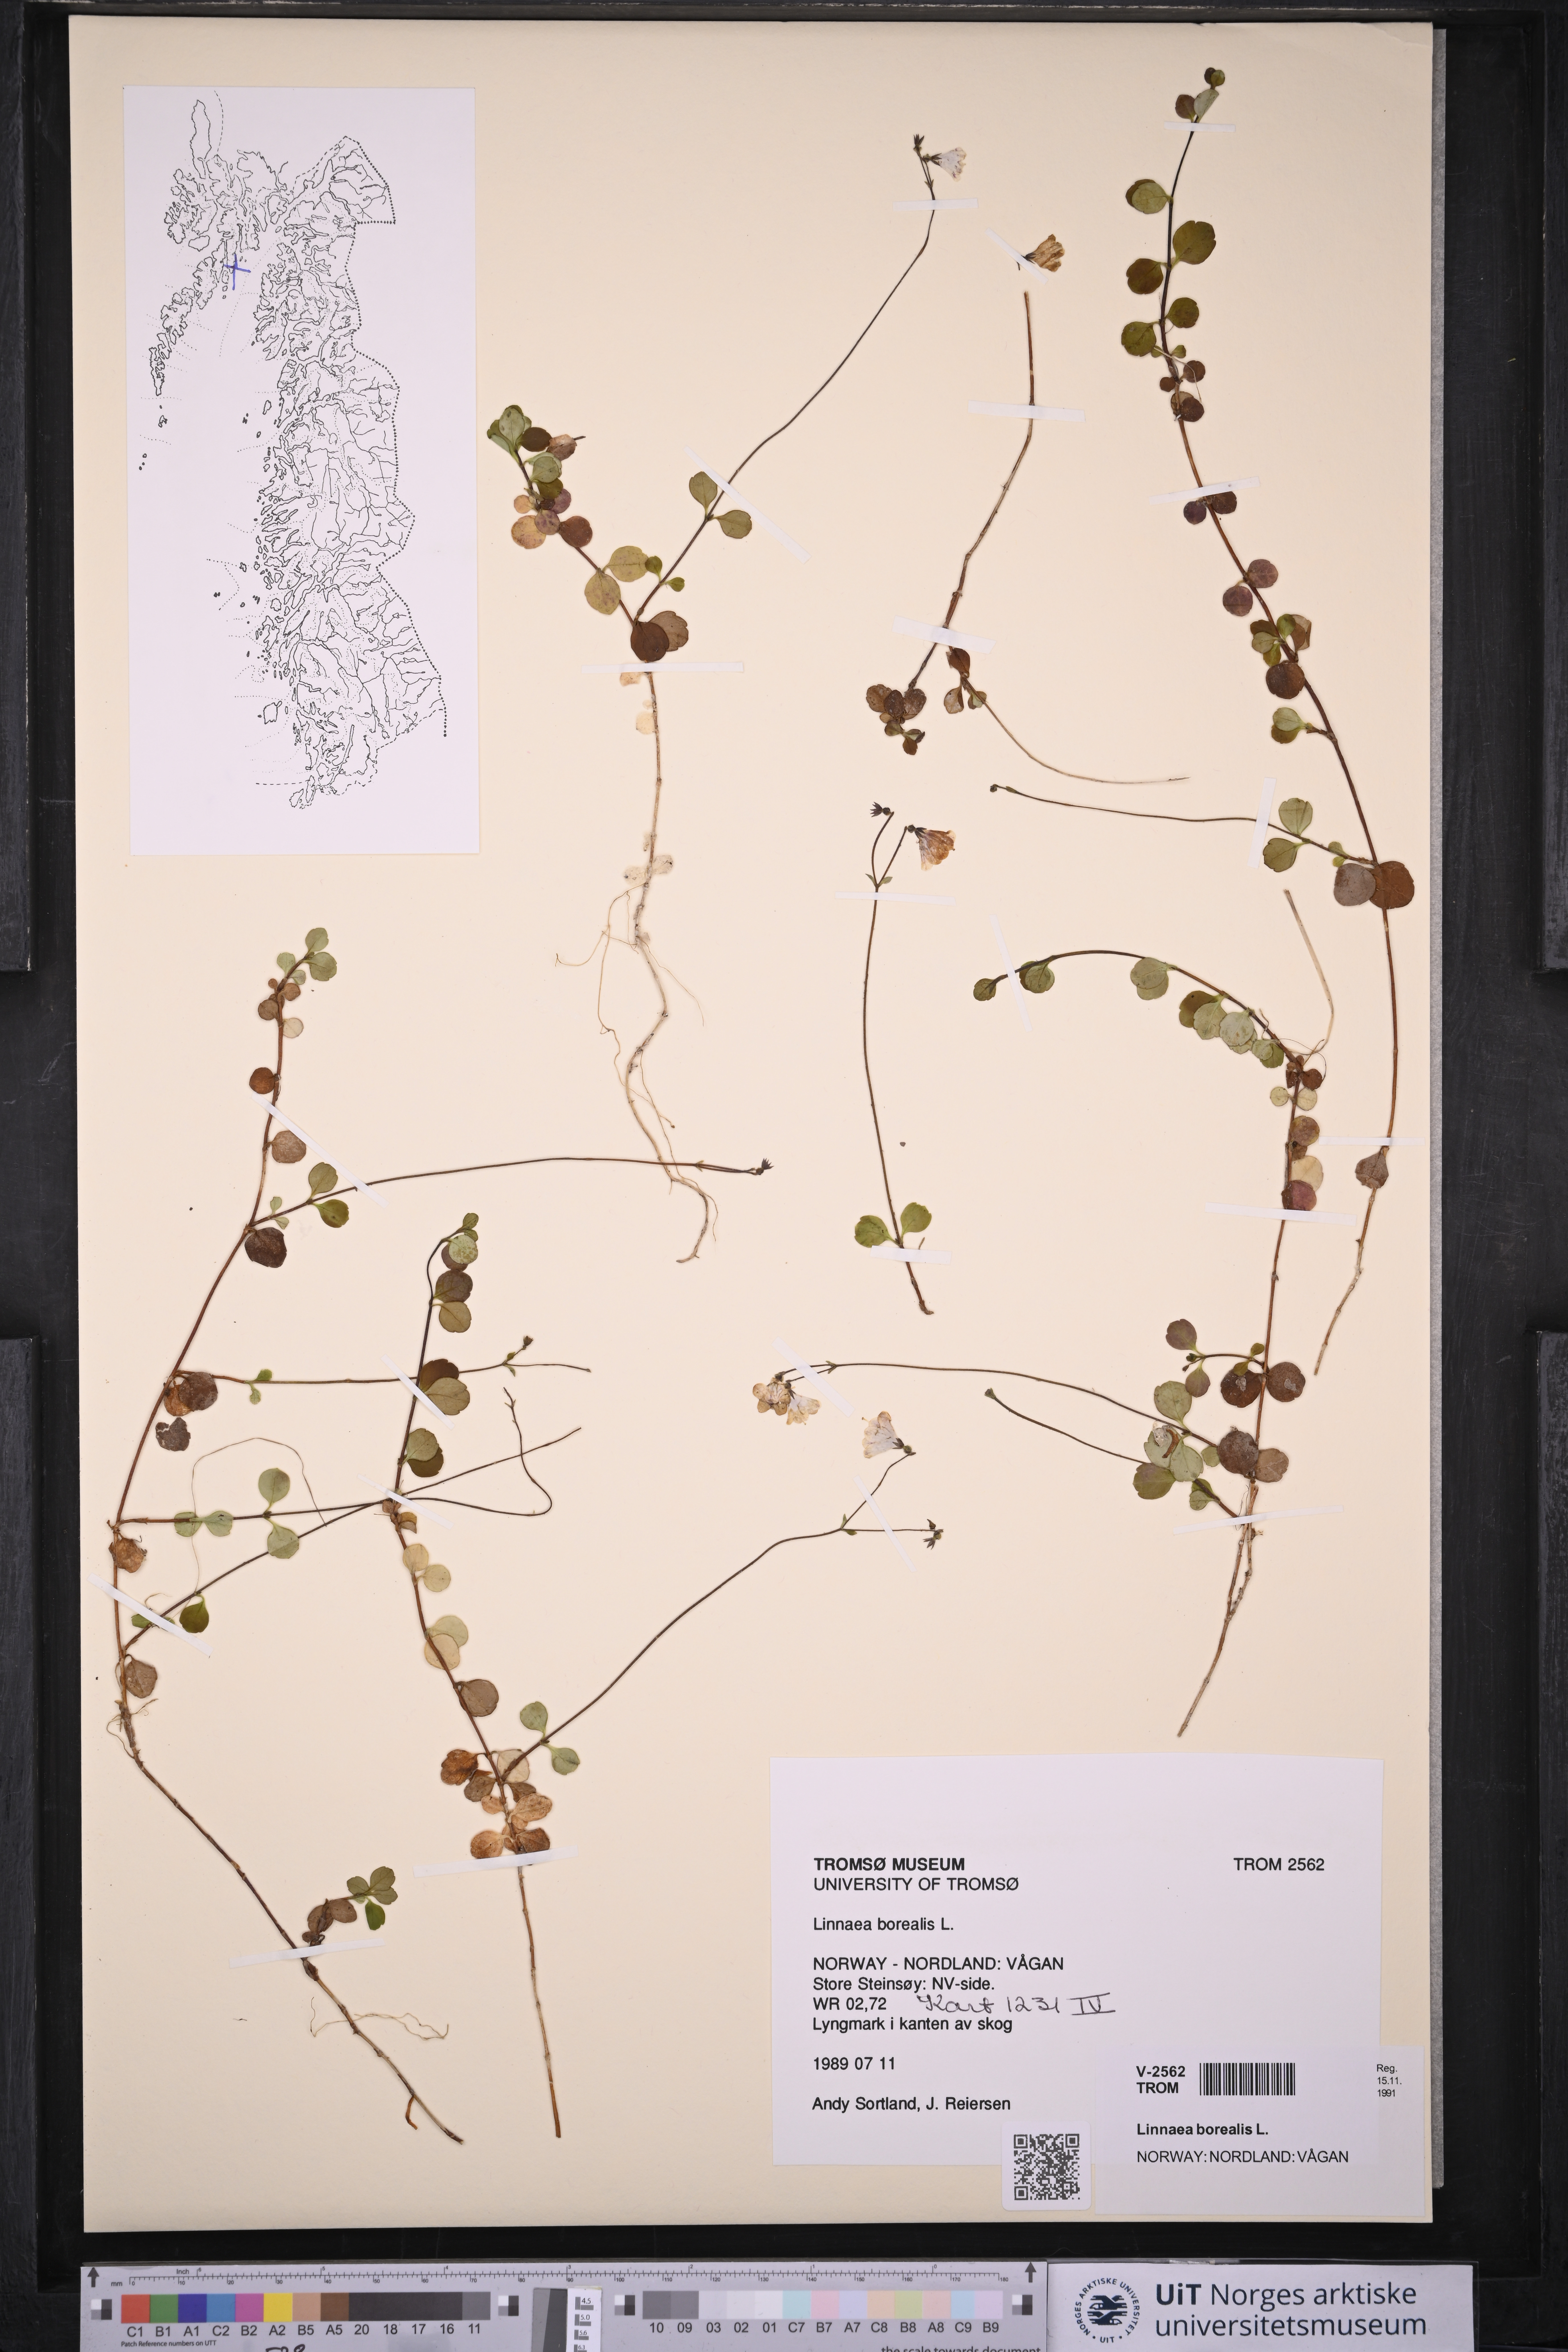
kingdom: Plantae
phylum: Tracheophyta
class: Magnoliopsida
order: Dipsacales
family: Caprifoliaceae
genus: Linnaea
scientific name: Linnaea borealis
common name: Twinflower
